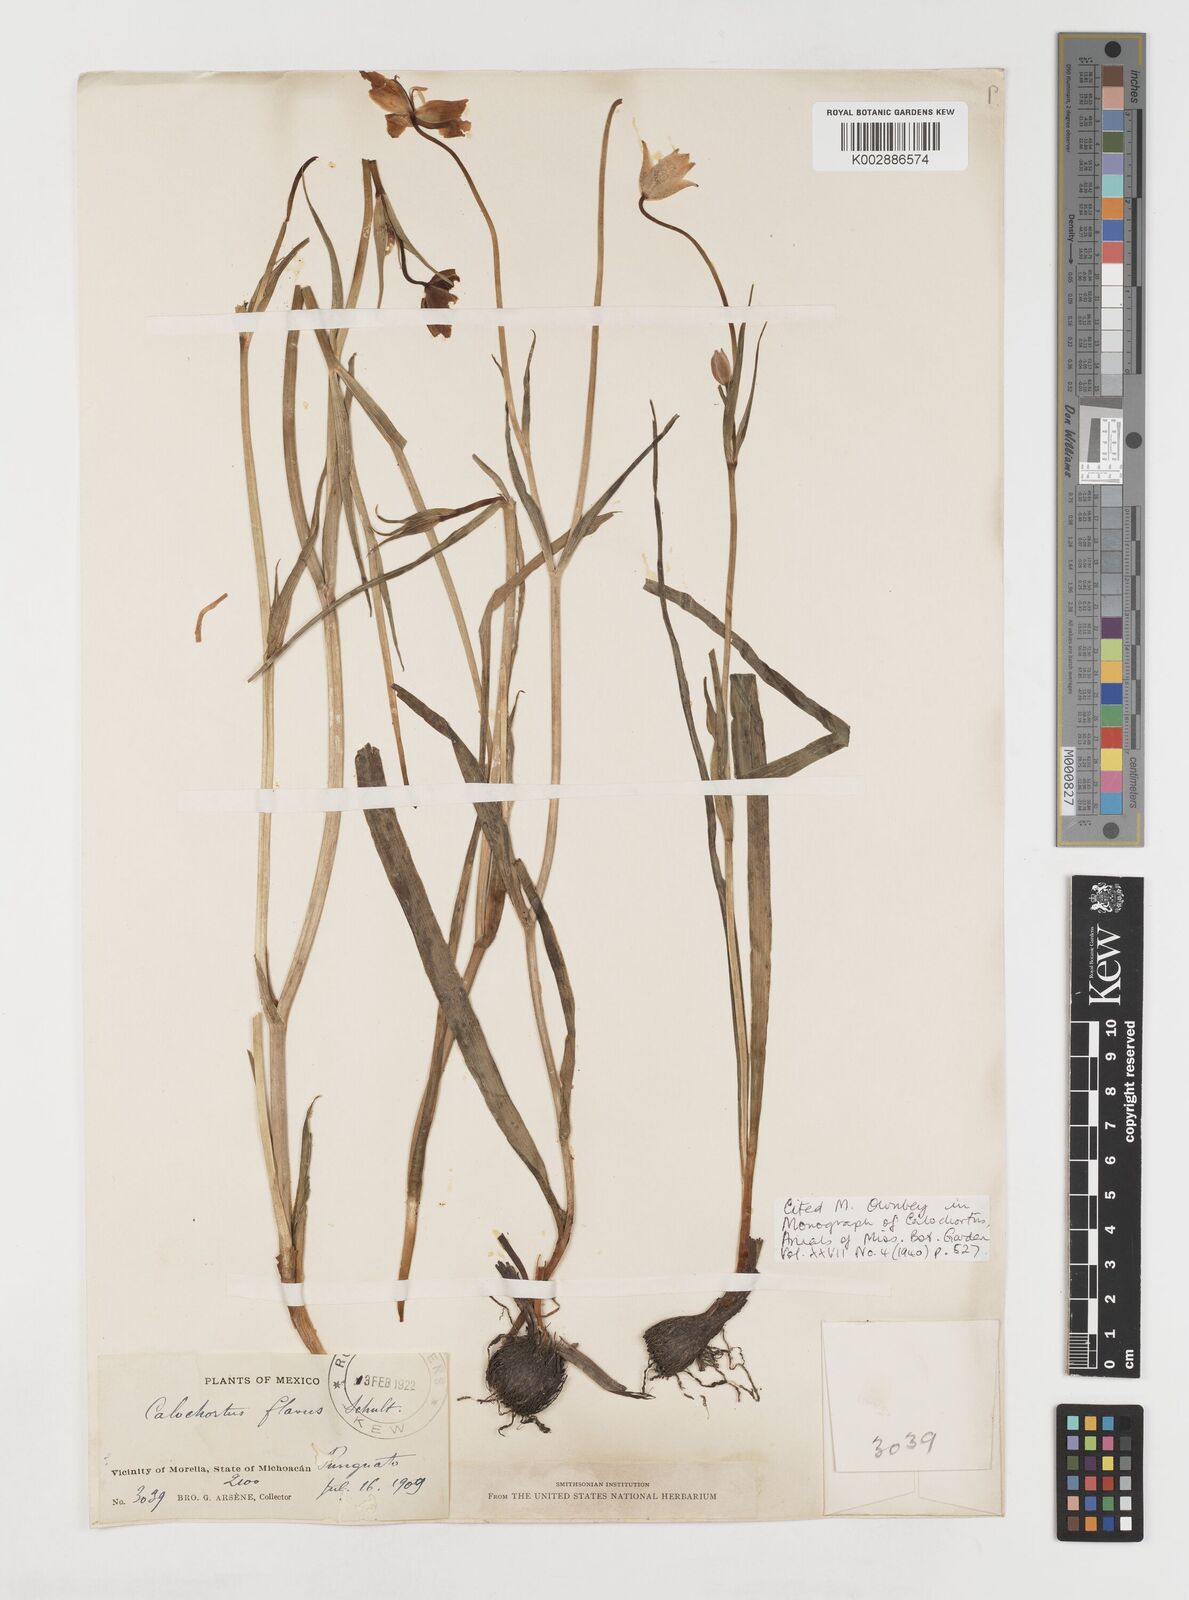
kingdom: Plantae
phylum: Tracheophyta
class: Liliopsida
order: Liliales
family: Liliaceae
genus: Calochortus
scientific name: Calochortus barbatus
